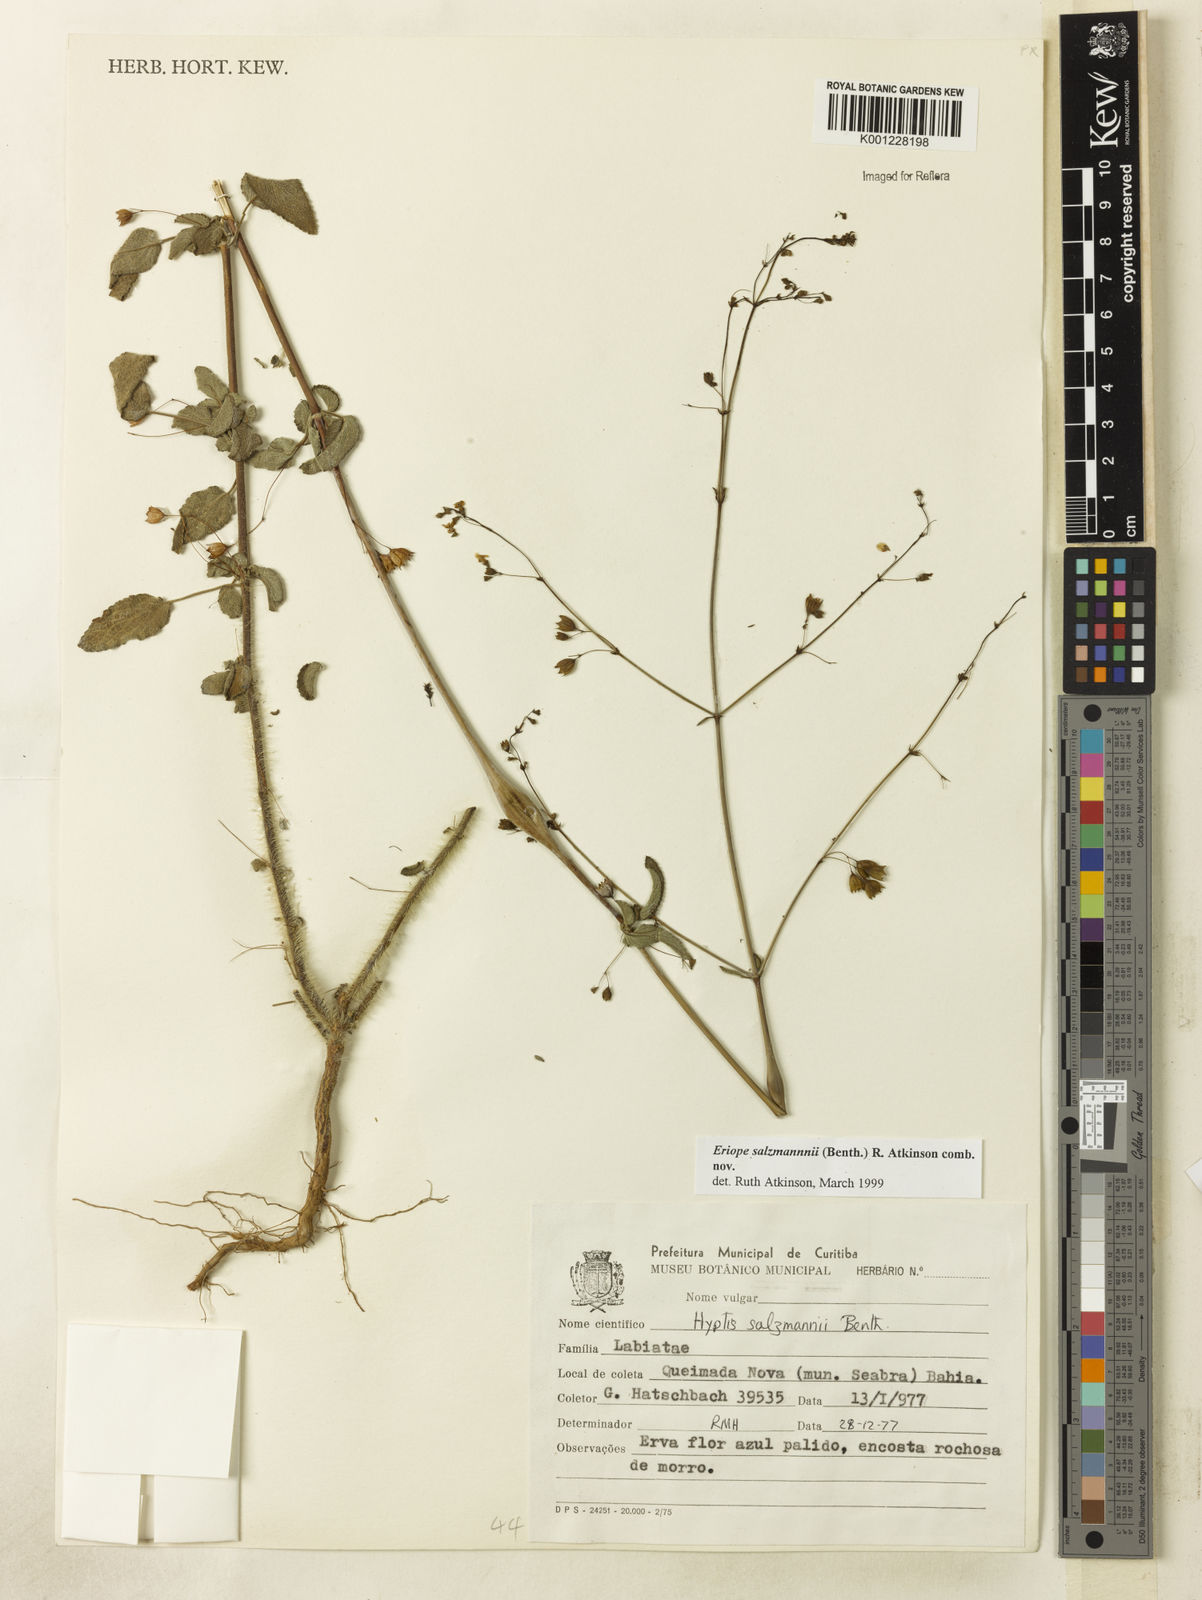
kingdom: Plantae
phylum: Tracheophyta
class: Magnoliopsida
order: Lamiales
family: Lamiaceae
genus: Hypenia
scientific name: Hypenia salzmannii
